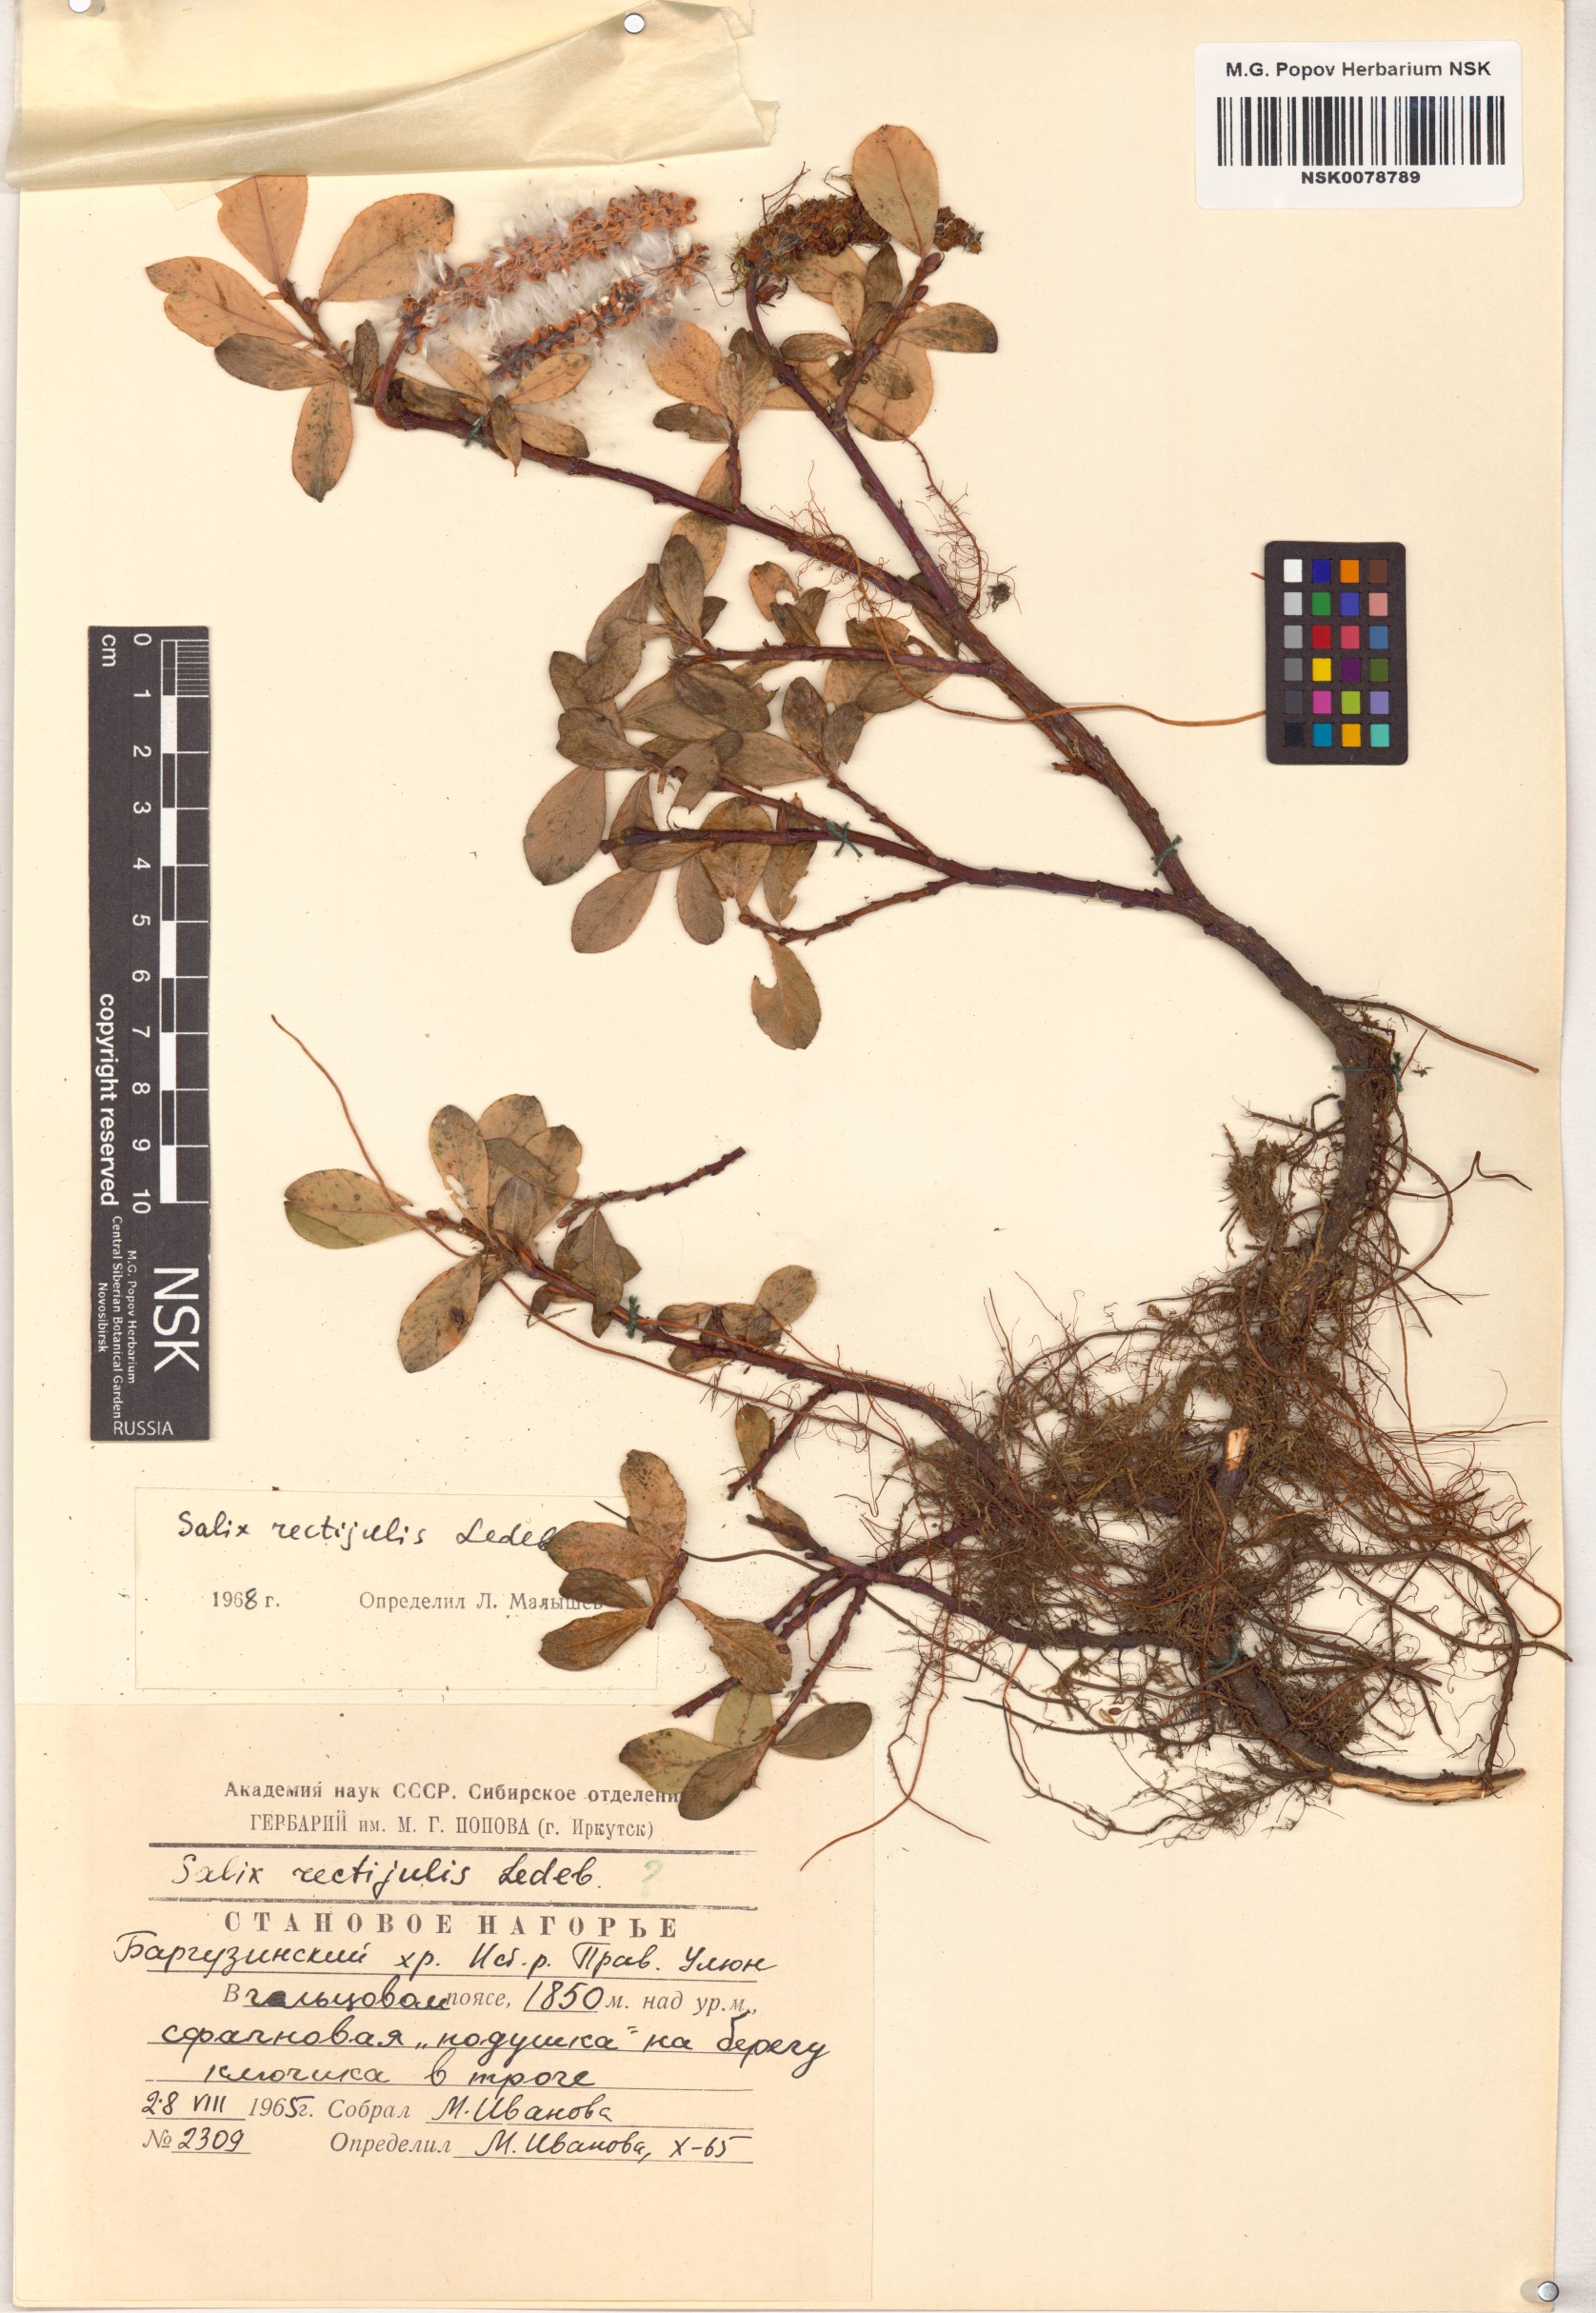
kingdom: Plantae
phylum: Tracheophyta
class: Magnoliopsida
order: Malpighiales
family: Salicaceae
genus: Salix
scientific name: Salix rectijulis
